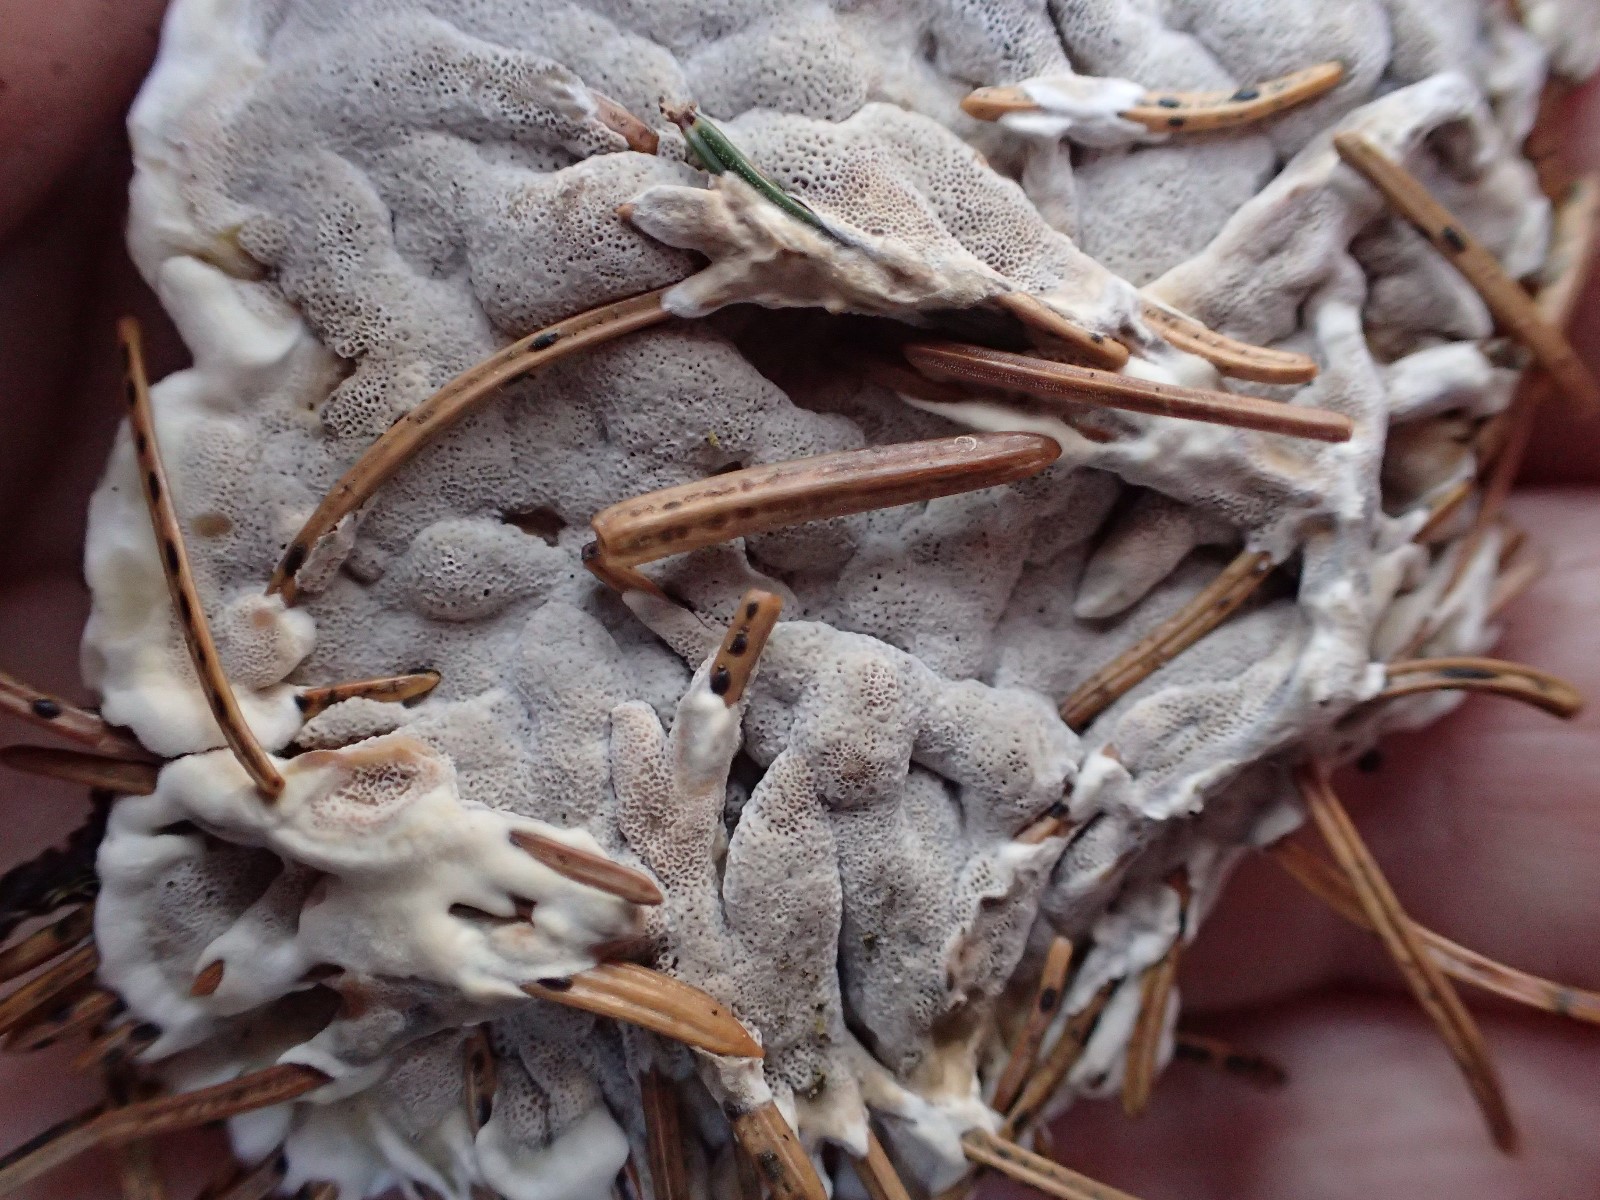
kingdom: Fungi
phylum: Basidiomycota
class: Agaricomycetes
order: Polyporales
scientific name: Polyporales
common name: poresvampordenen
